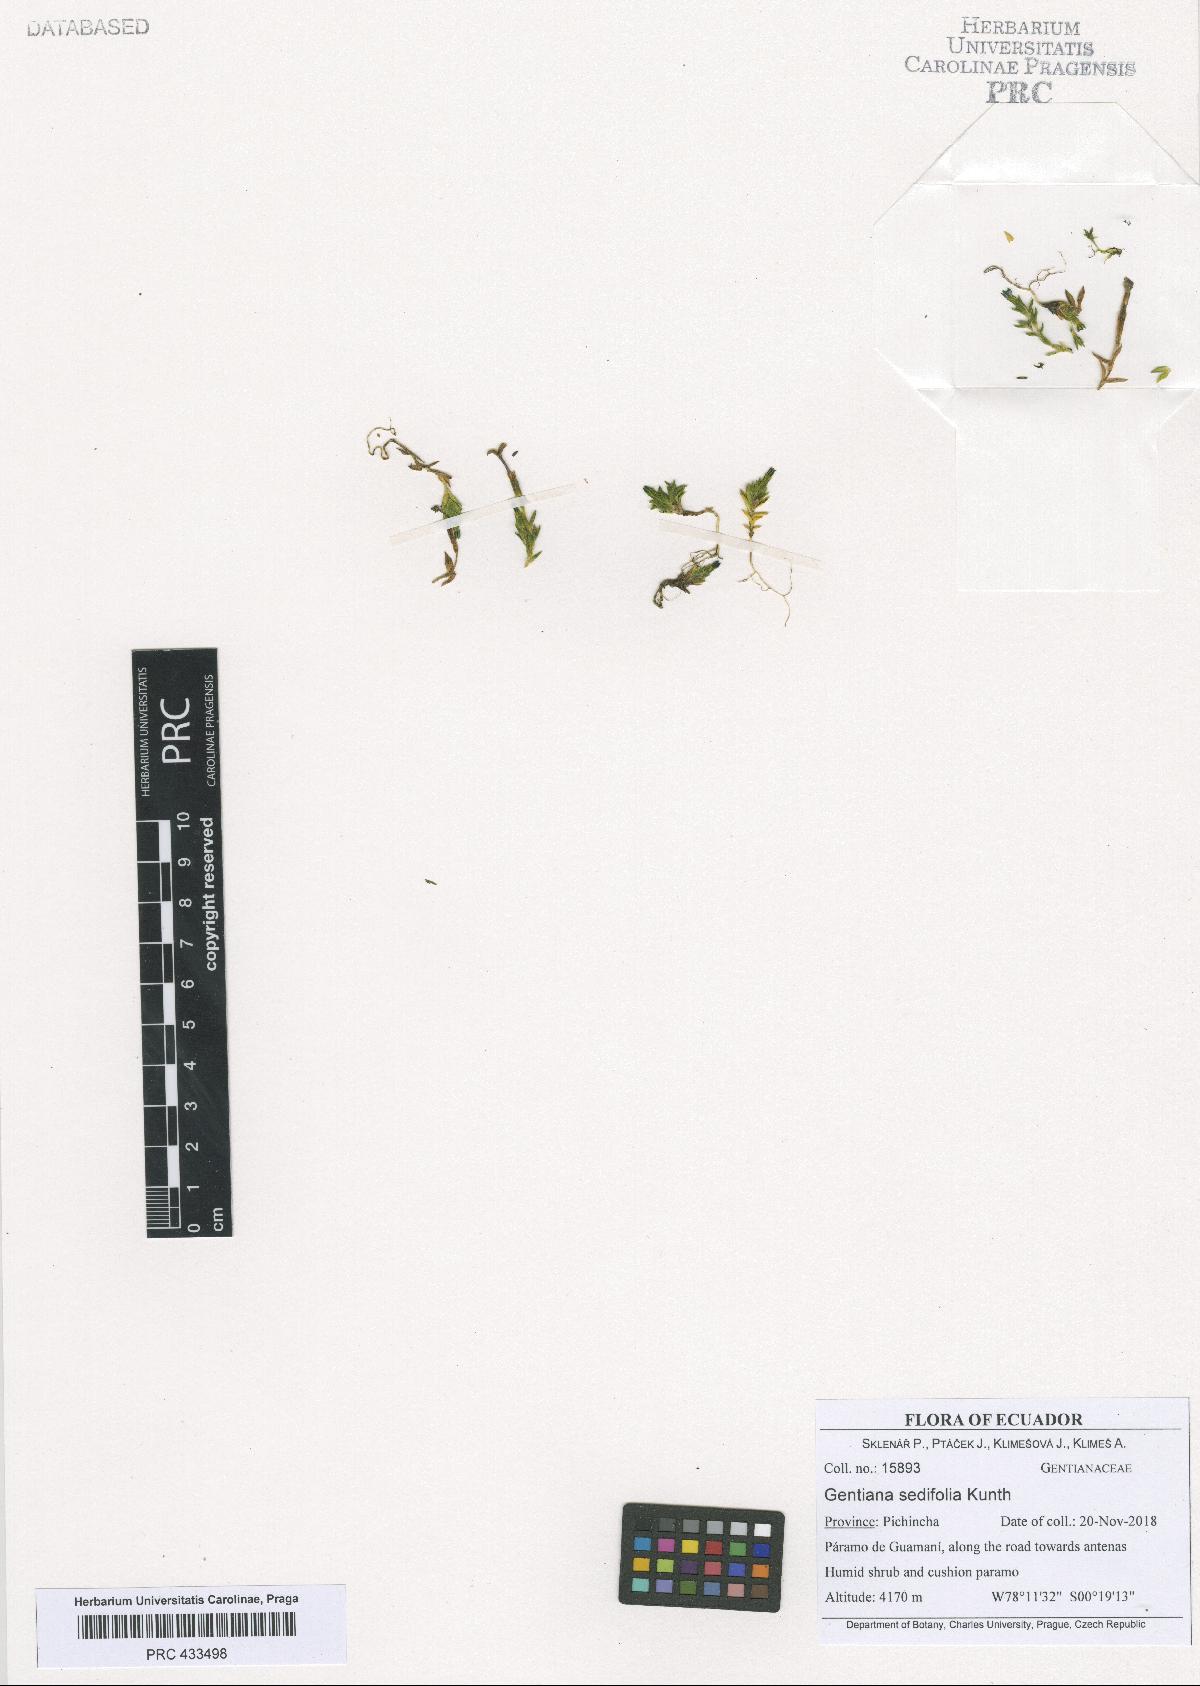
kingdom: Plantae
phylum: Tracheophyta
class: Magnoliopsida
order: Gentianales
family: Gentianaceae
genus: Gentiana
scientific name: Gentiana sedifolia
